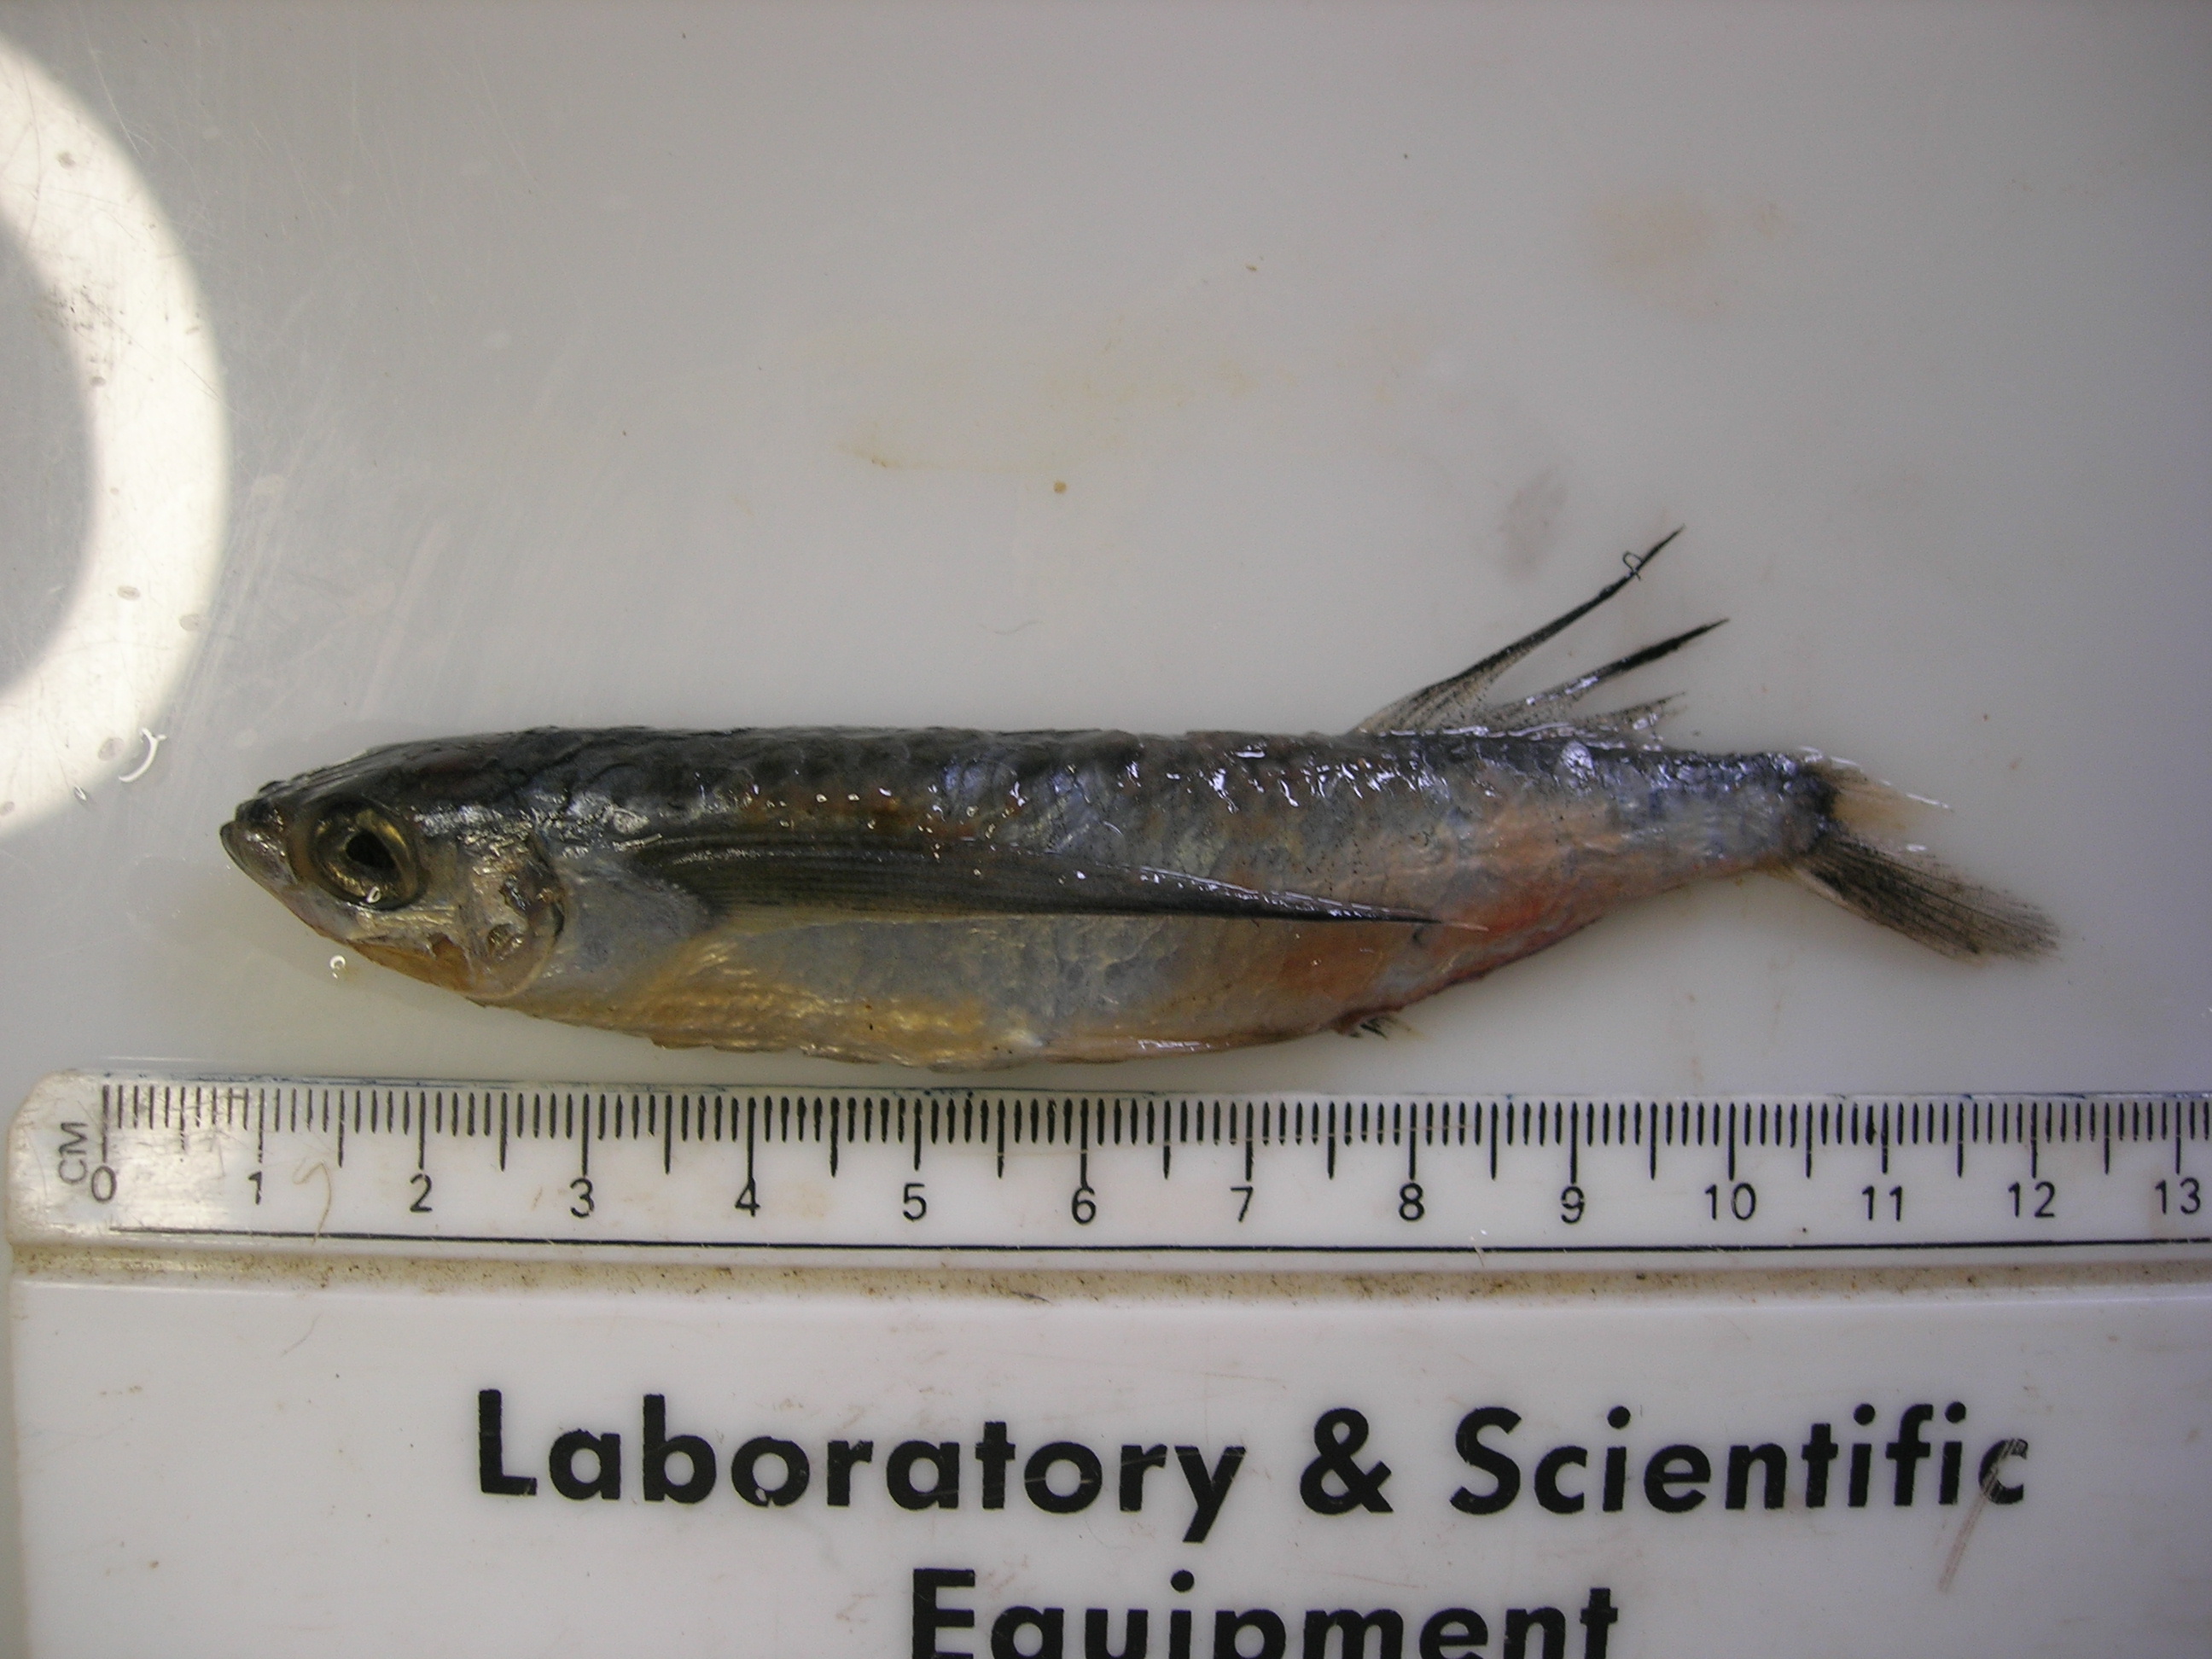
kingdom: Animalia
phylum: Chordata
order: Beloniformes
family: Exocoetidae
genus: Parexocoetus
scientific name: Parexocoetus mento
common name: African sailfin flyingfish
